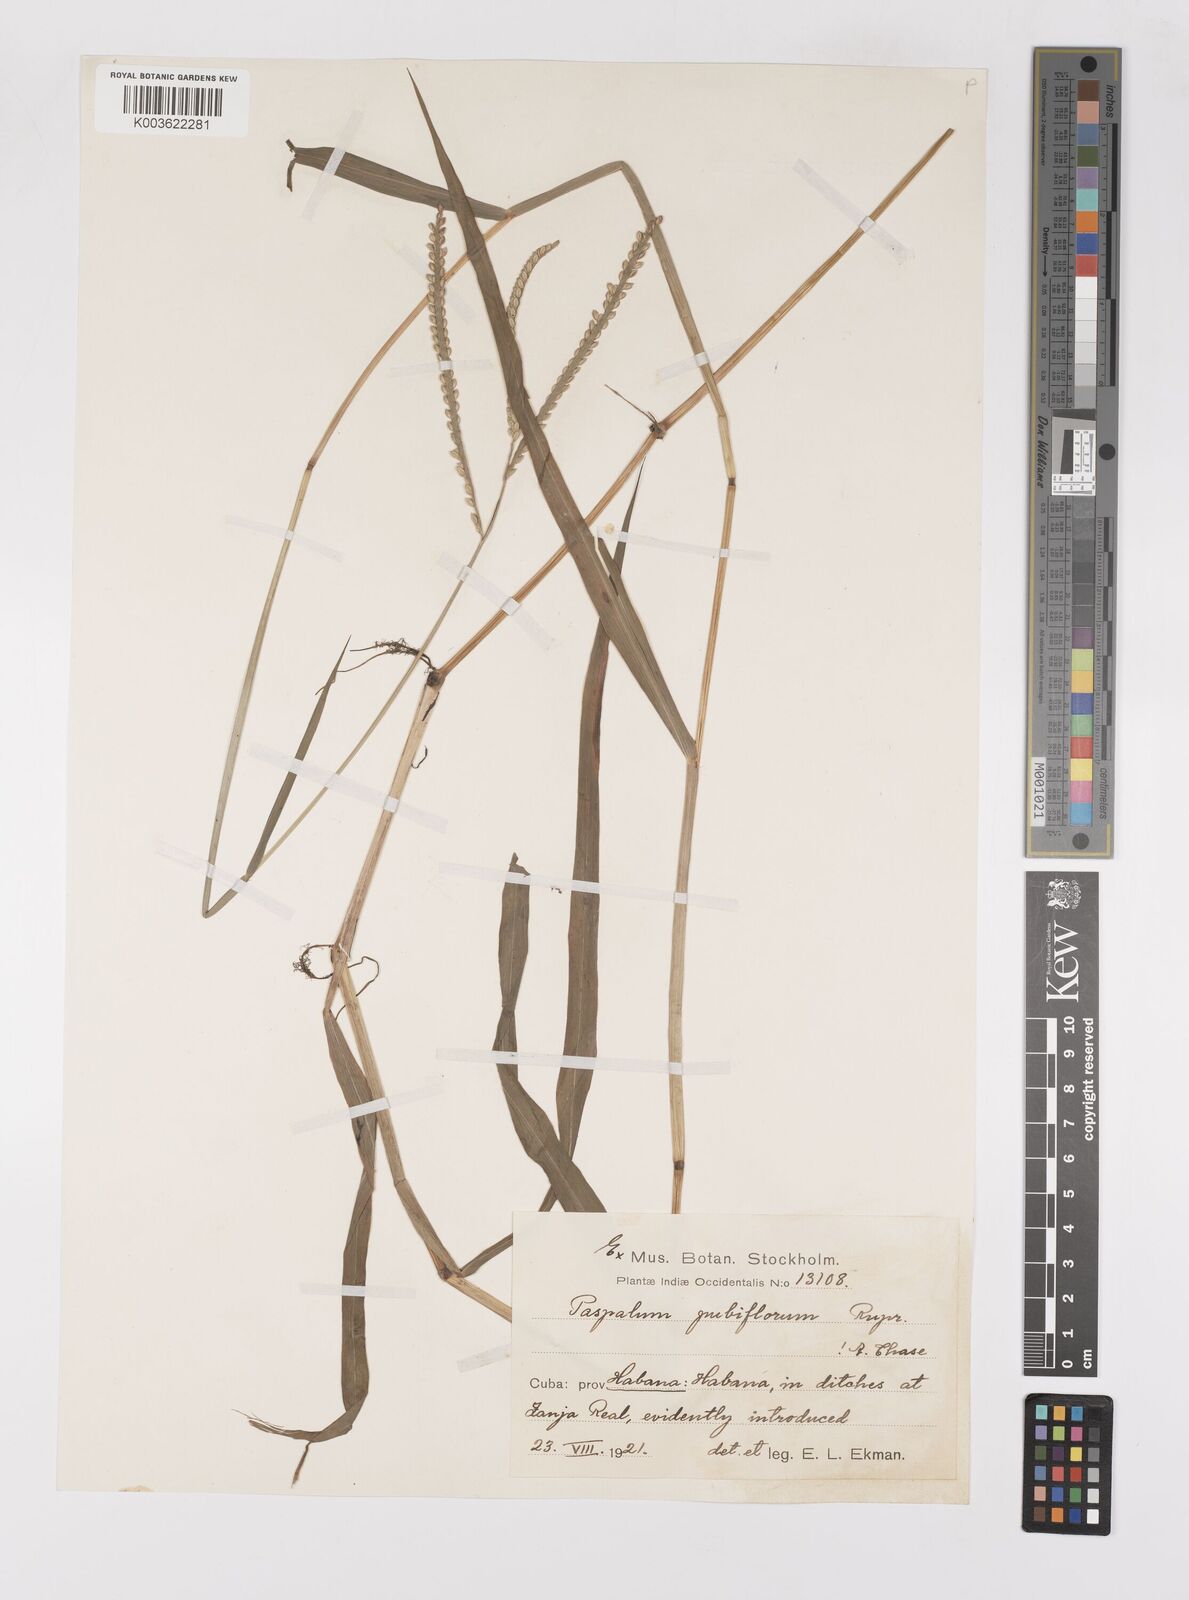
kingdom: Plantae
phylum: Tracheophyta
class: Liliopsida
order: Poales
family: Poaceae
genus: Paspalum
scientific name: Paspalum pubiflorum
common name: Hairy-seed paspalum
